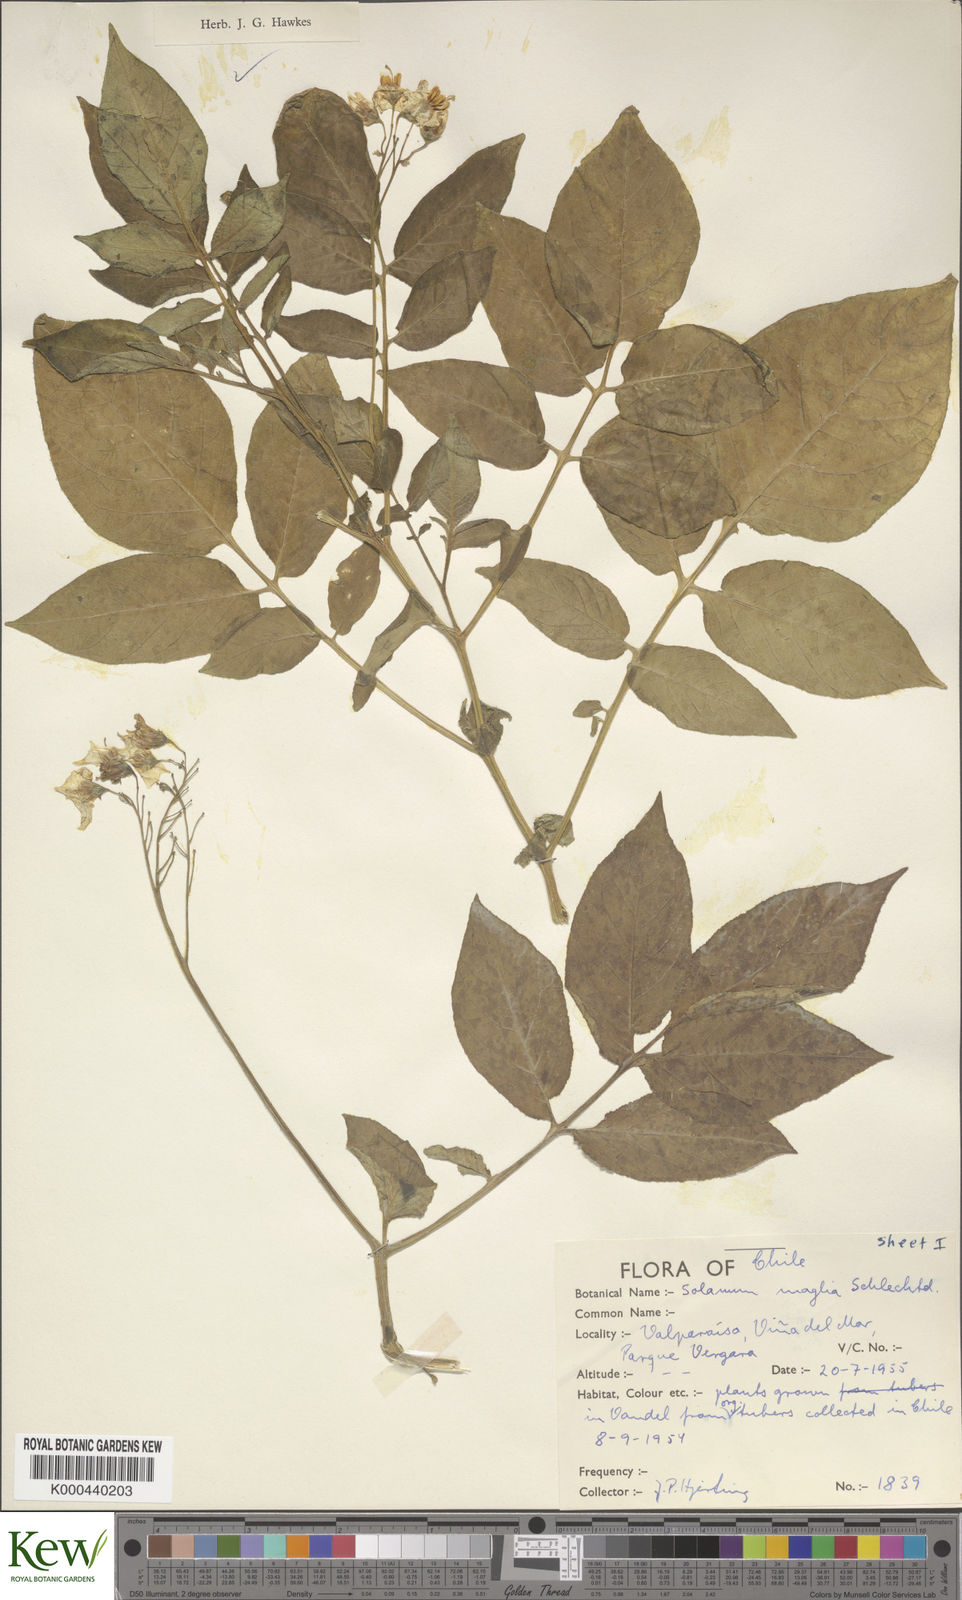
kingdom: Plantae
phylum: Tracheophyta
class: Magnoliopsida
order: Solanales
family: Solanaceae
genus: Solanum
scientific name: Solanum maglia
